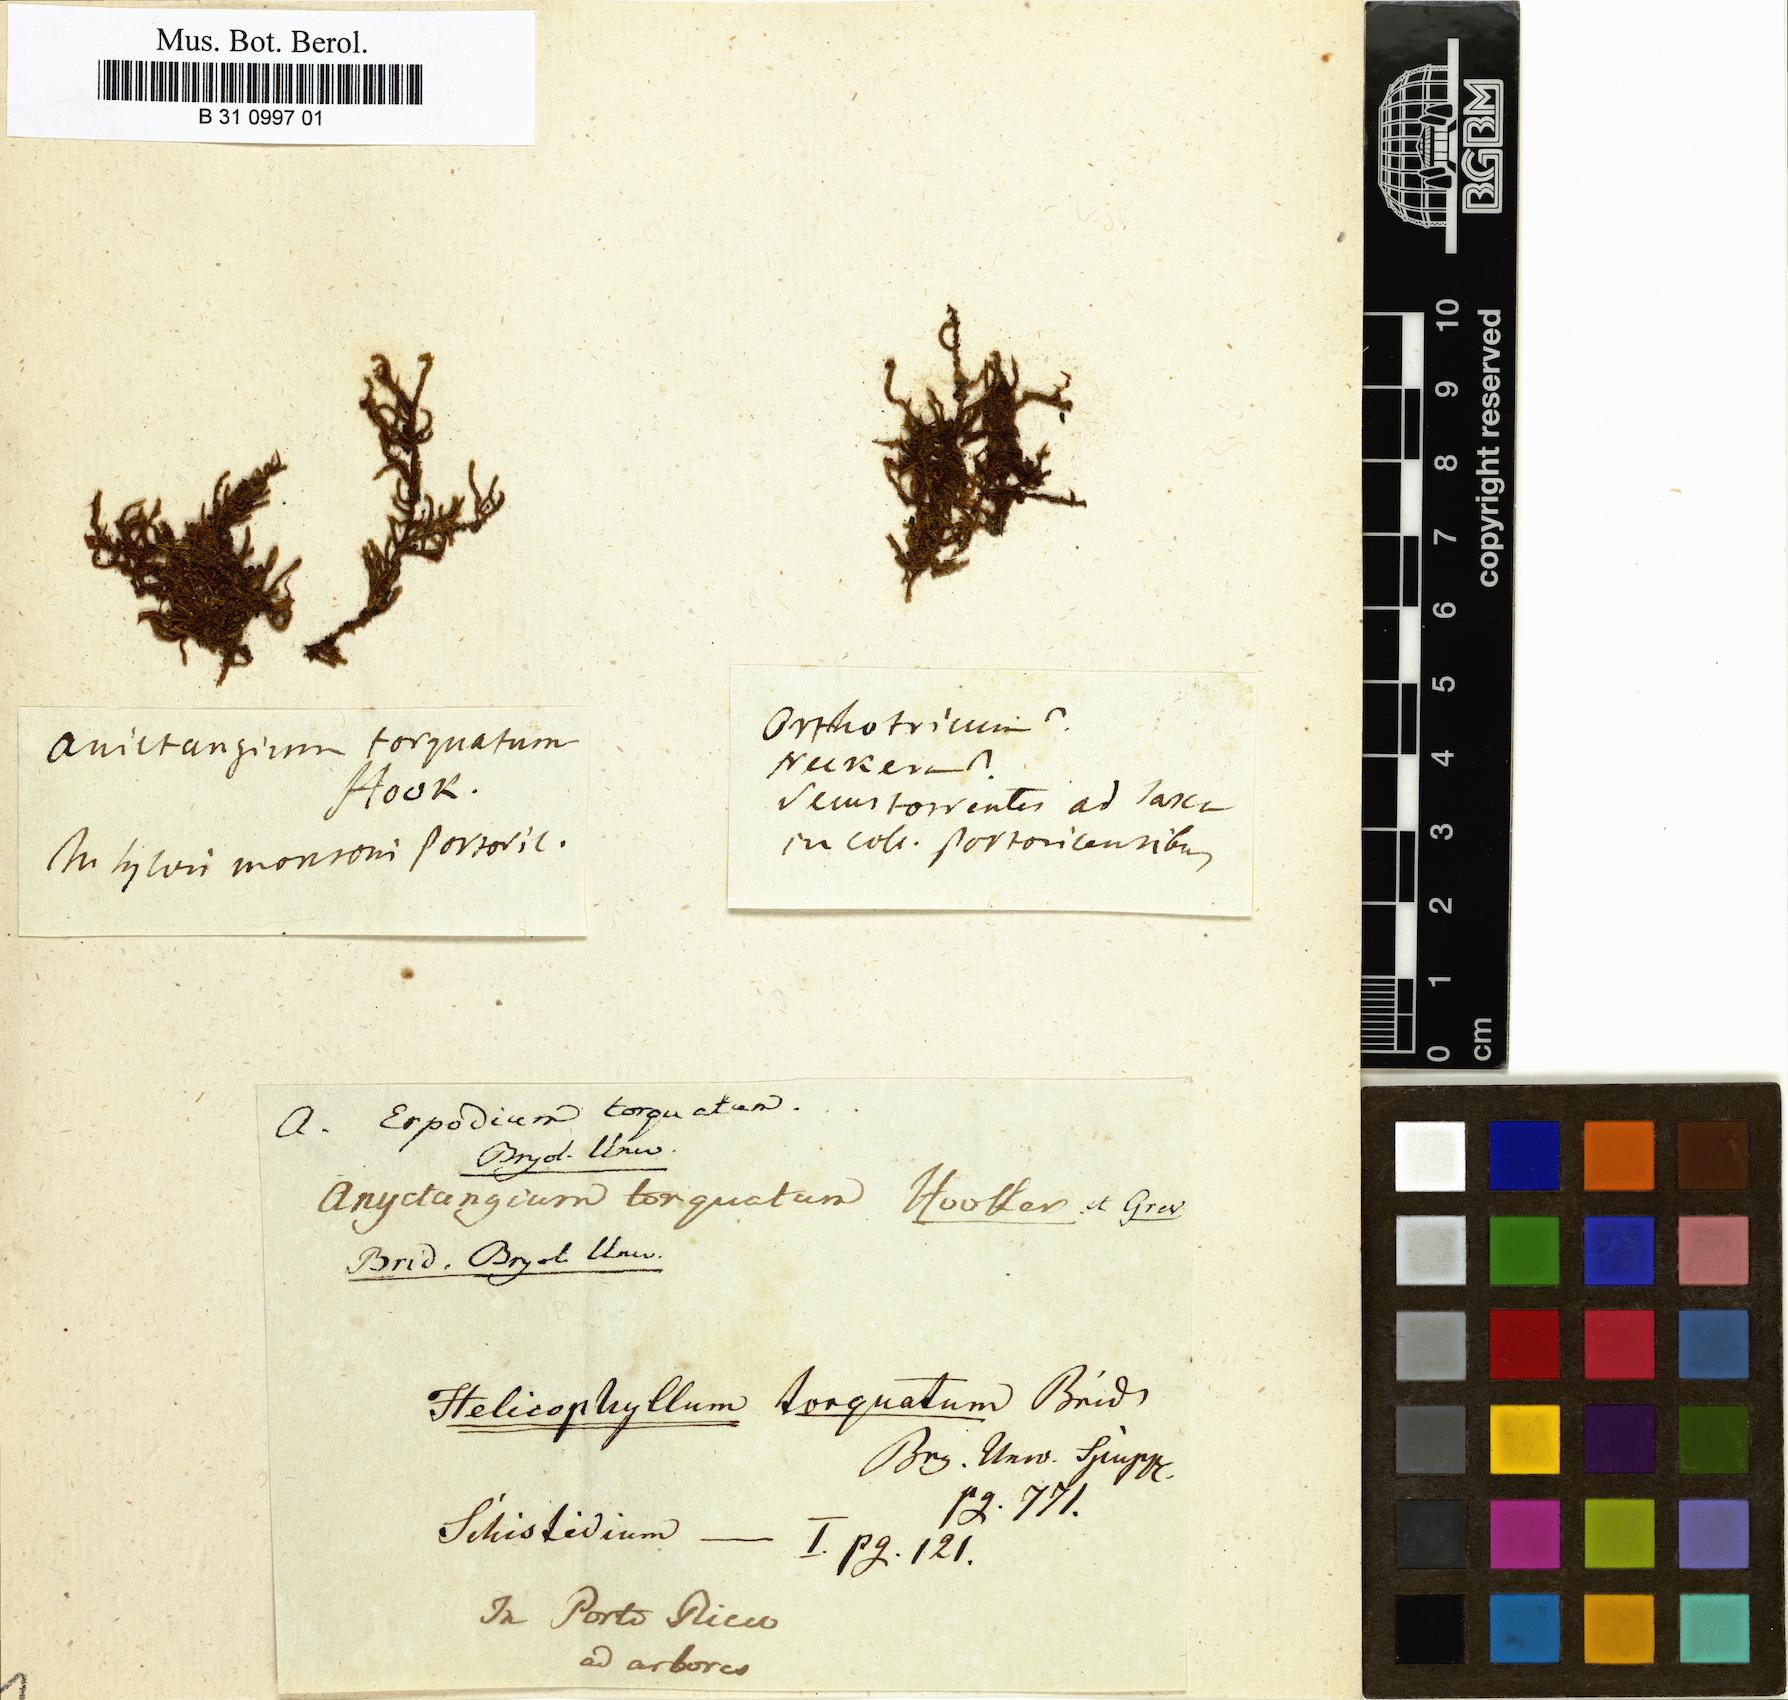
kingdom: Plantae
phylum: Bryophyta
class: Bryopsida
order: Helicophyllales
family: Helicophyllaceae
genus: Helicophyllum
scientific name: Helicophyllum torquatum
